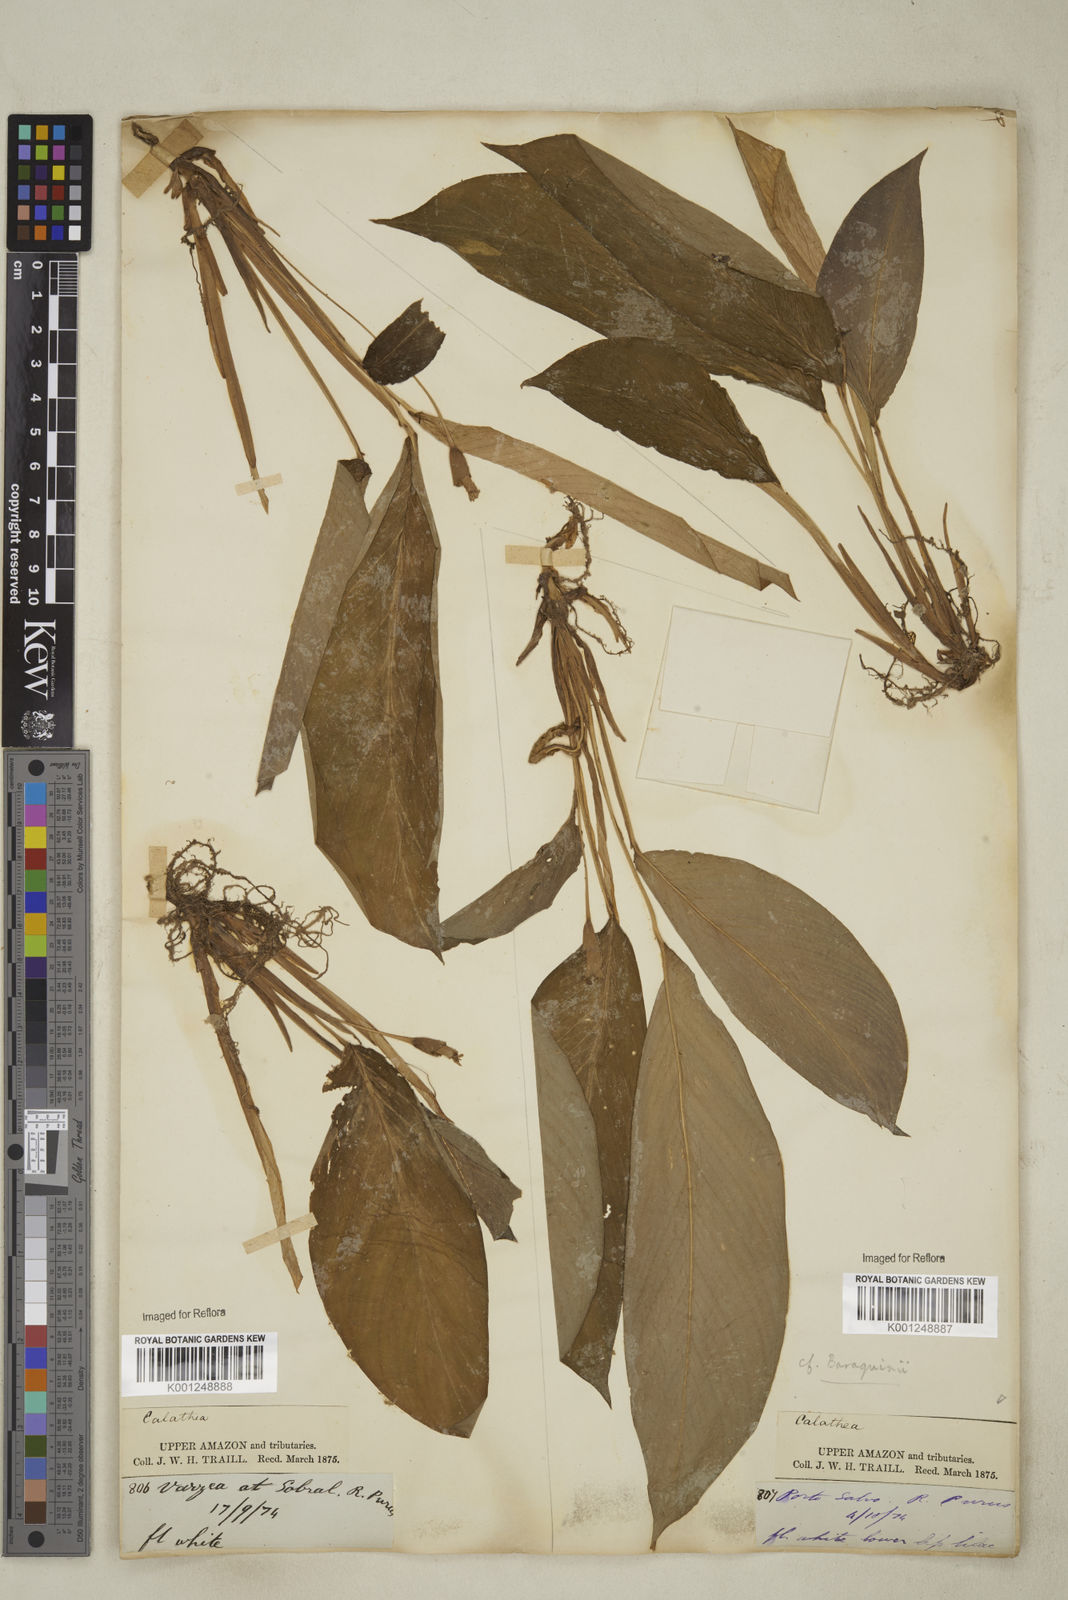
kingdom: Plantae
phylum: Tracheophyta
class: Liliopsida
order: Zingiberales
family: Marantaceae
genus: Goeppertia
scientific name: Goeppertia baraquinii
